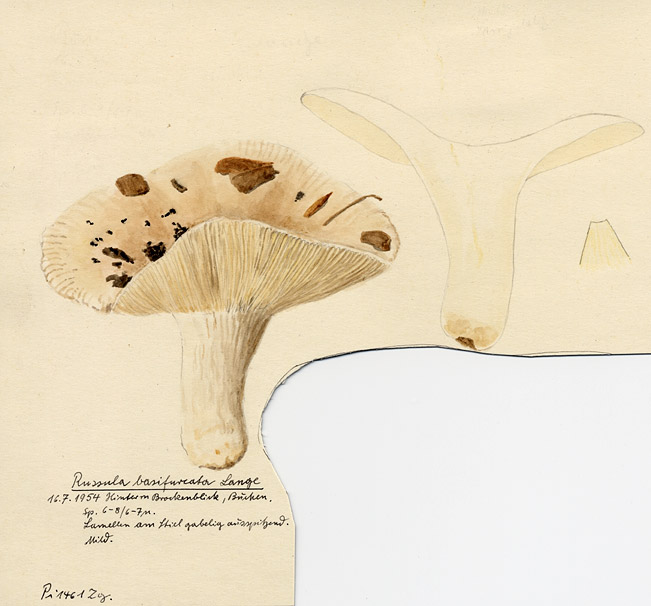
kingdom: Fungi
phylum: Basidiomycota
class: Agaricomycetes
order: Russulales
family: Russulaceae
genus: Russula
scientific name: Russula basifurcata
